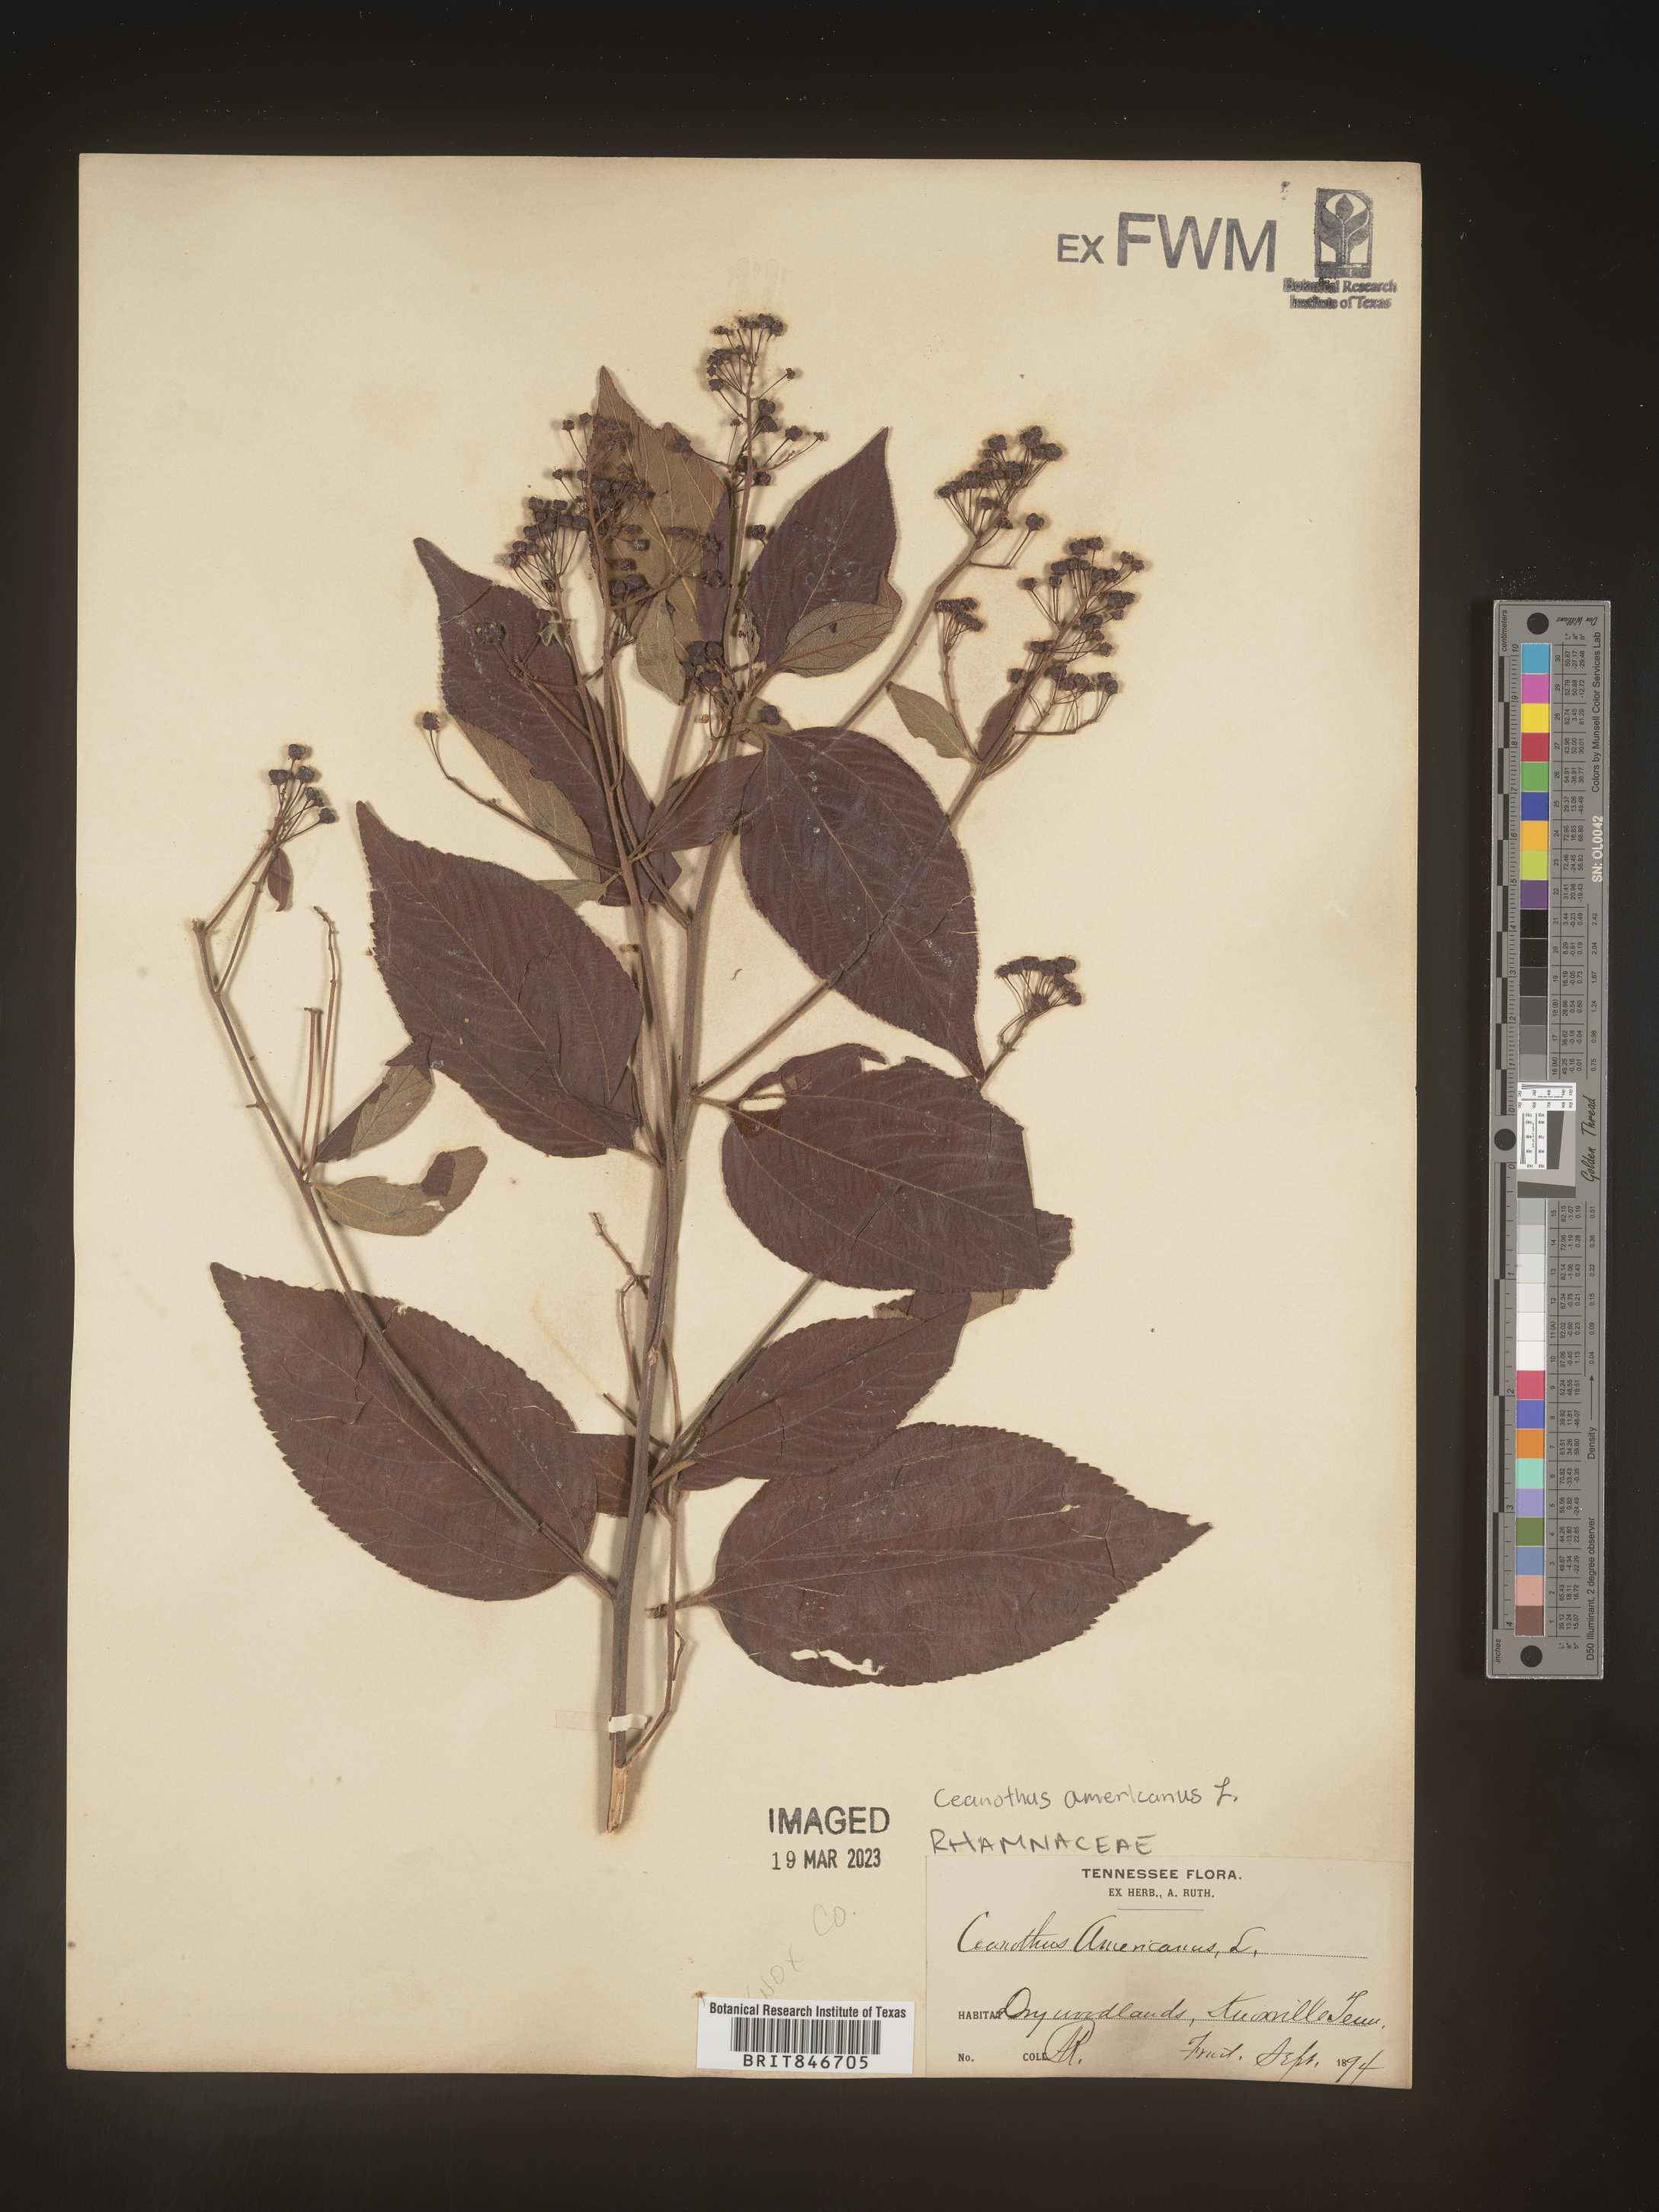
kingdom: Plantae
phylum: Tracheophyta
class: Magnoliopsida
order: Rosales
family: Rhamnaceae
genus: Ceanothus
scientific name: Ceanothus americanus
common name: Redroot
